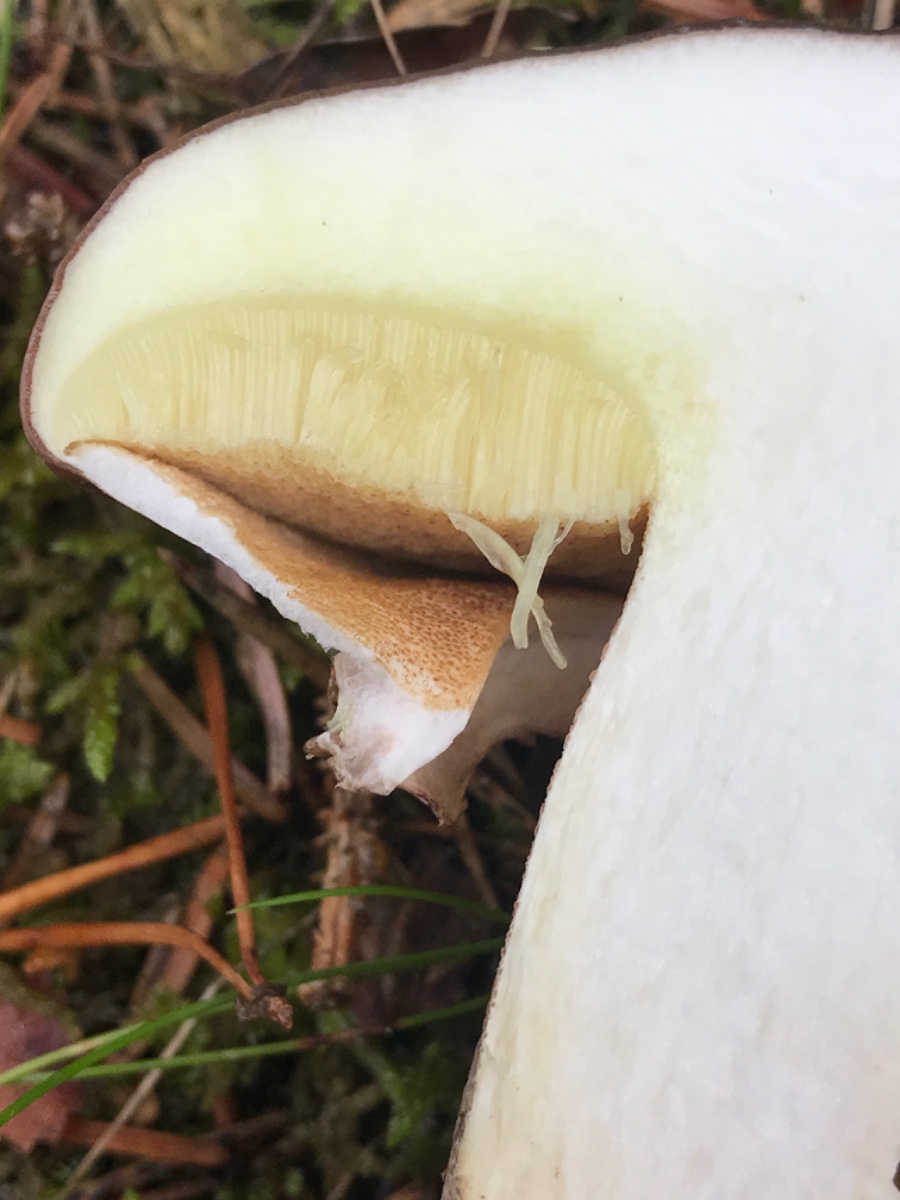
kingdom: Fungi
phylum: Basidiomycota
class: Agaricomycetes
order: Boletales
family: Suillaceae
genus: Suillus
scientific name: Suillus luteus
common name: brungul slimrørhat
